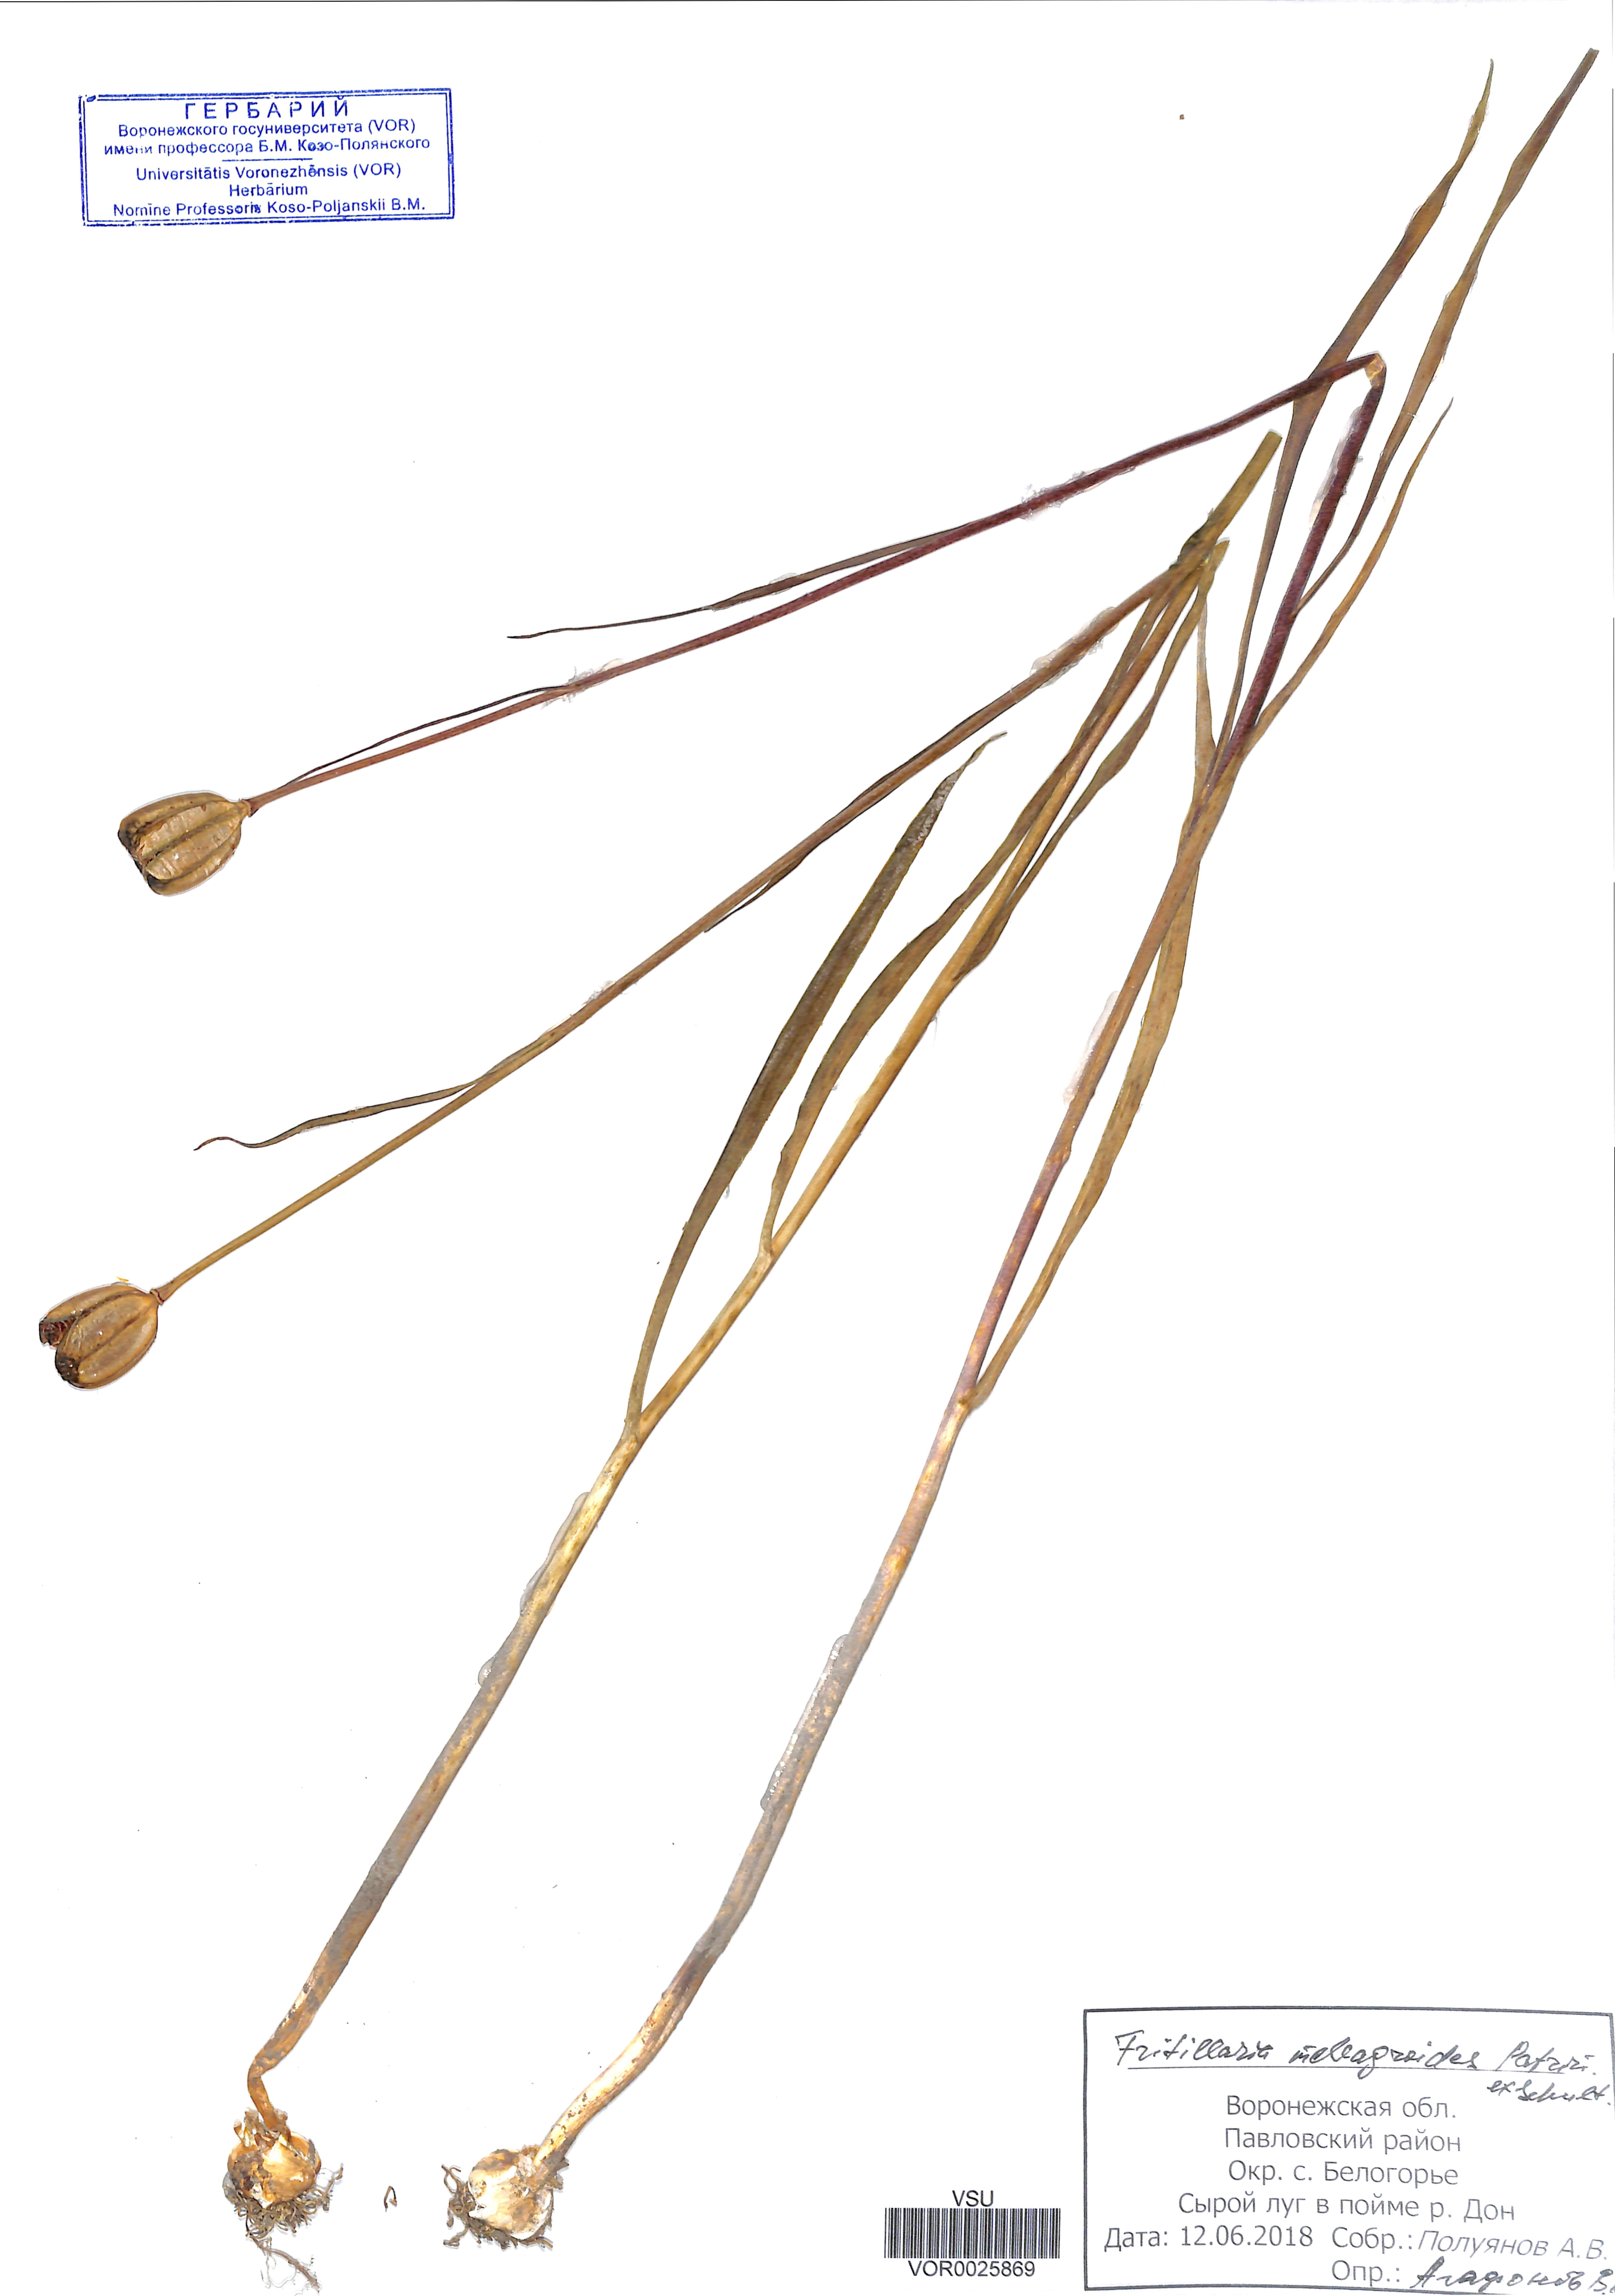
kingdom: Plantae
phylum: Tracheophyta
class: Liliopsida
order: Liliales
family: Liliaceae
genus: Fritillaria
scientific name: Fritillaria meleagroides
